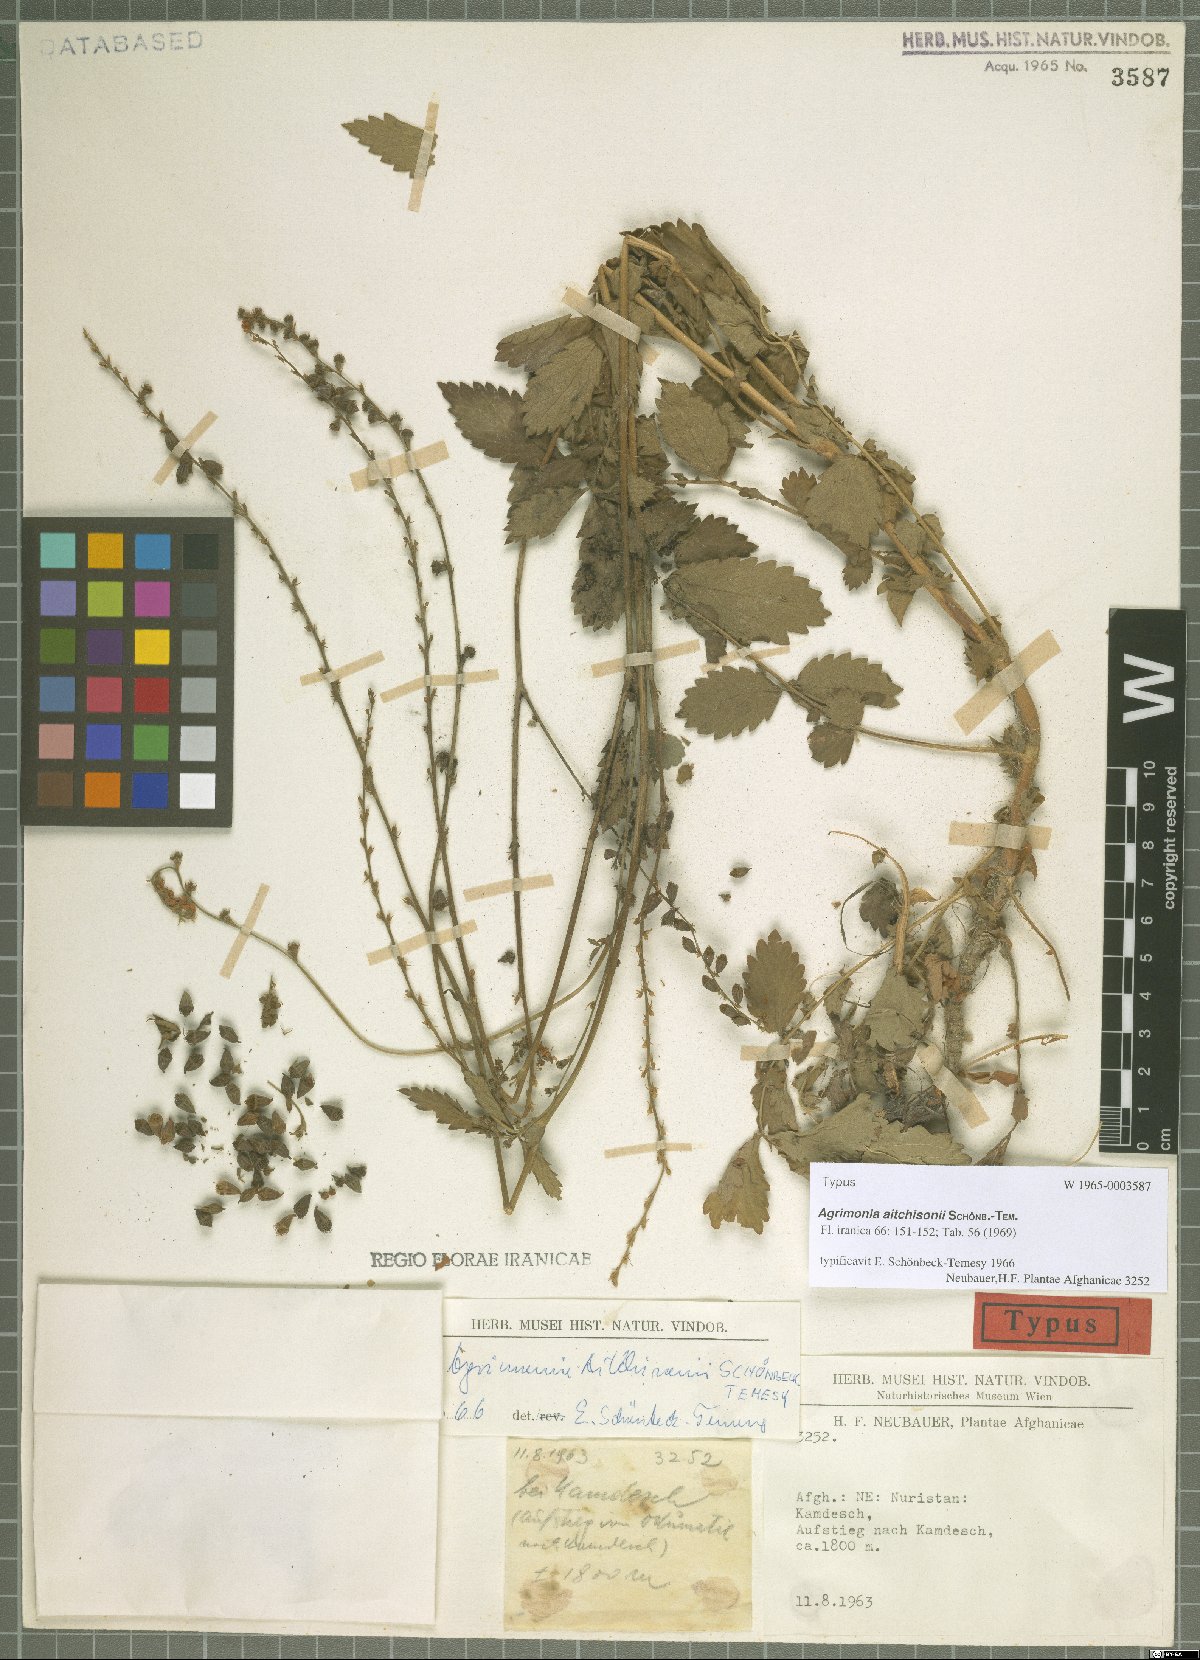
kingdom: Plantae
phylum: Tracheophyta
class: Magnoliopsida
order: Rosales
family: Rosaceae
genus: Agrimonia
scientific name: Agrimonia aitchisonii
